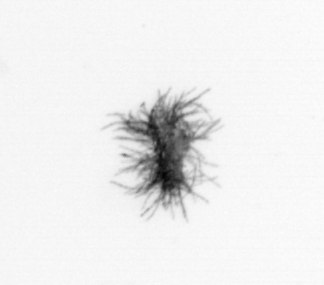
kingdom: Bacteria
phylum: Cyanobacteria
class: Cyanobacteriia
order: Cyanobacteriales
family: Microcoleaceae
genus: Trichodesmium
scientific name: Trichodesmium
